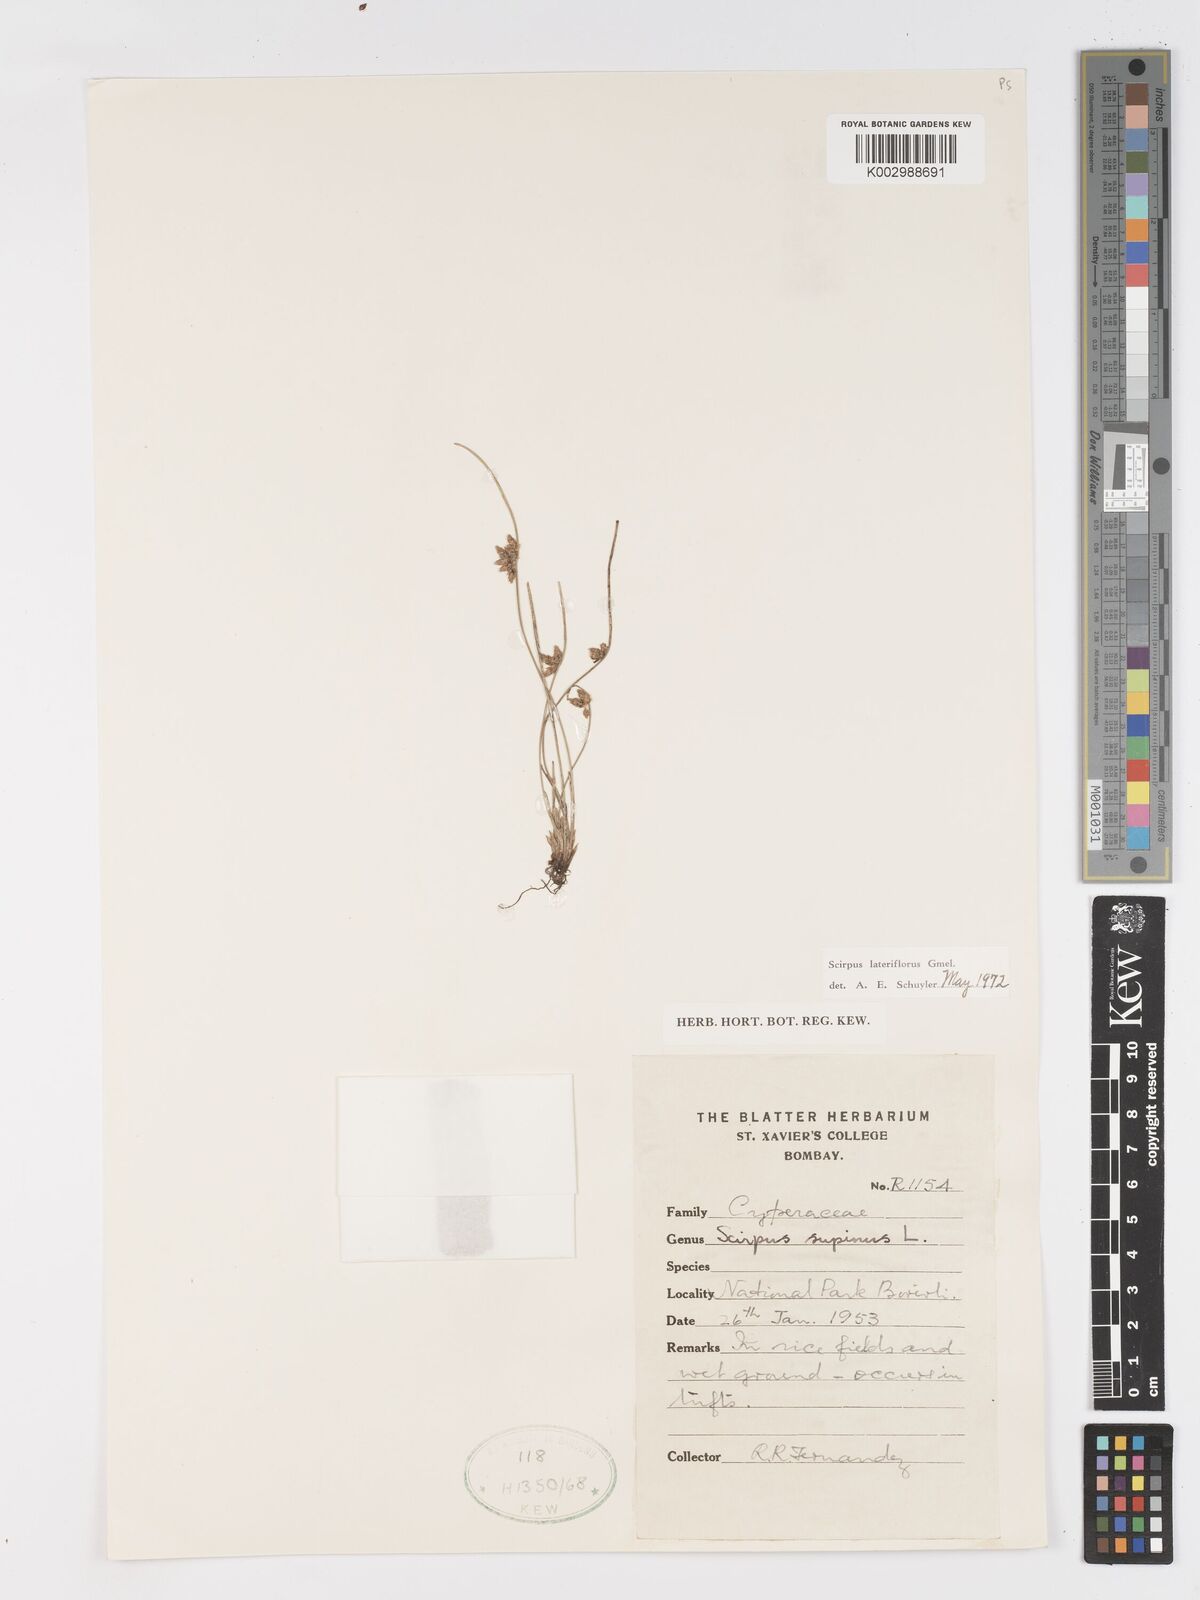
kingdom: Plantae
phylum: Tracheophyta
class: Liliopsida
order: Poales
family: Cyperaceae
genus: Schoenoplectiella
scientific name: Schoenoplectiella lateriflora
